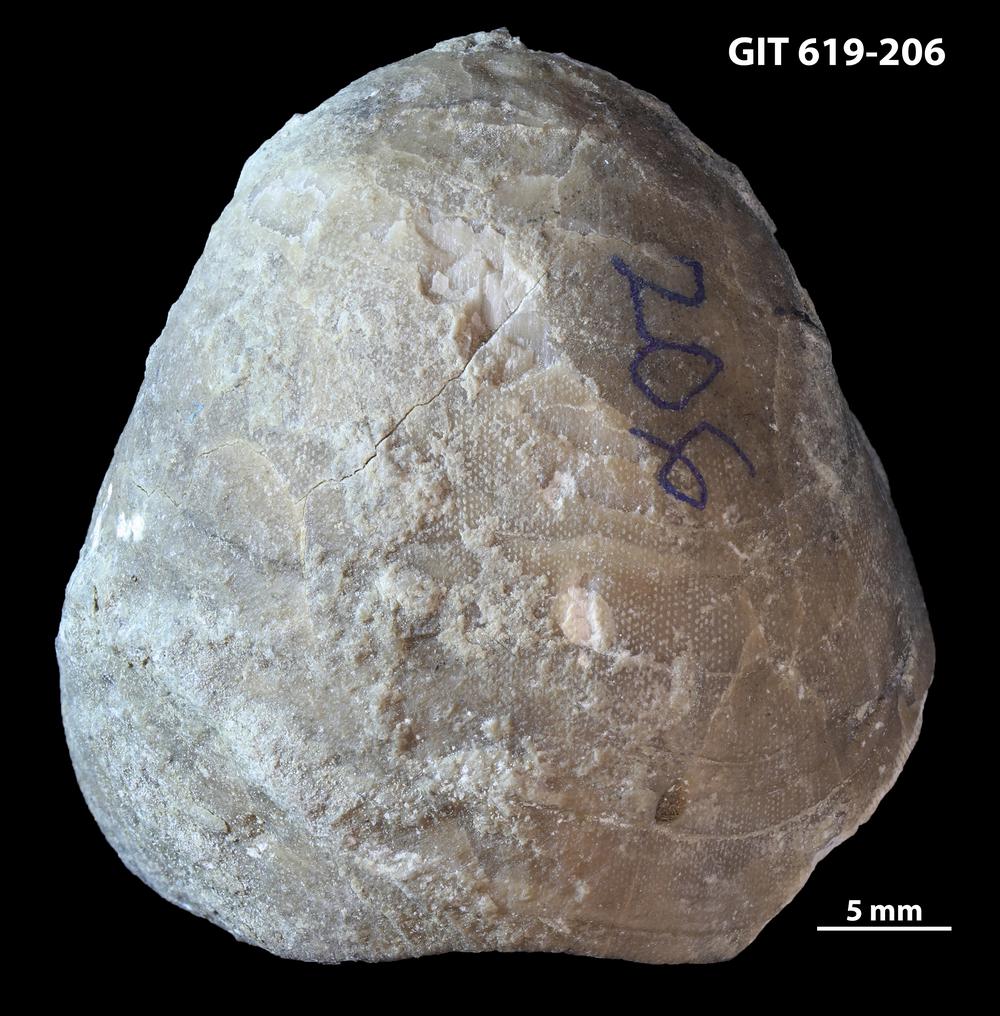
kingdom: Animalia
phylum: Brachiopoda
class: Rhynchonellata
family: Porambonitidae
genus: Porambonites
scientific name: Porambonites
